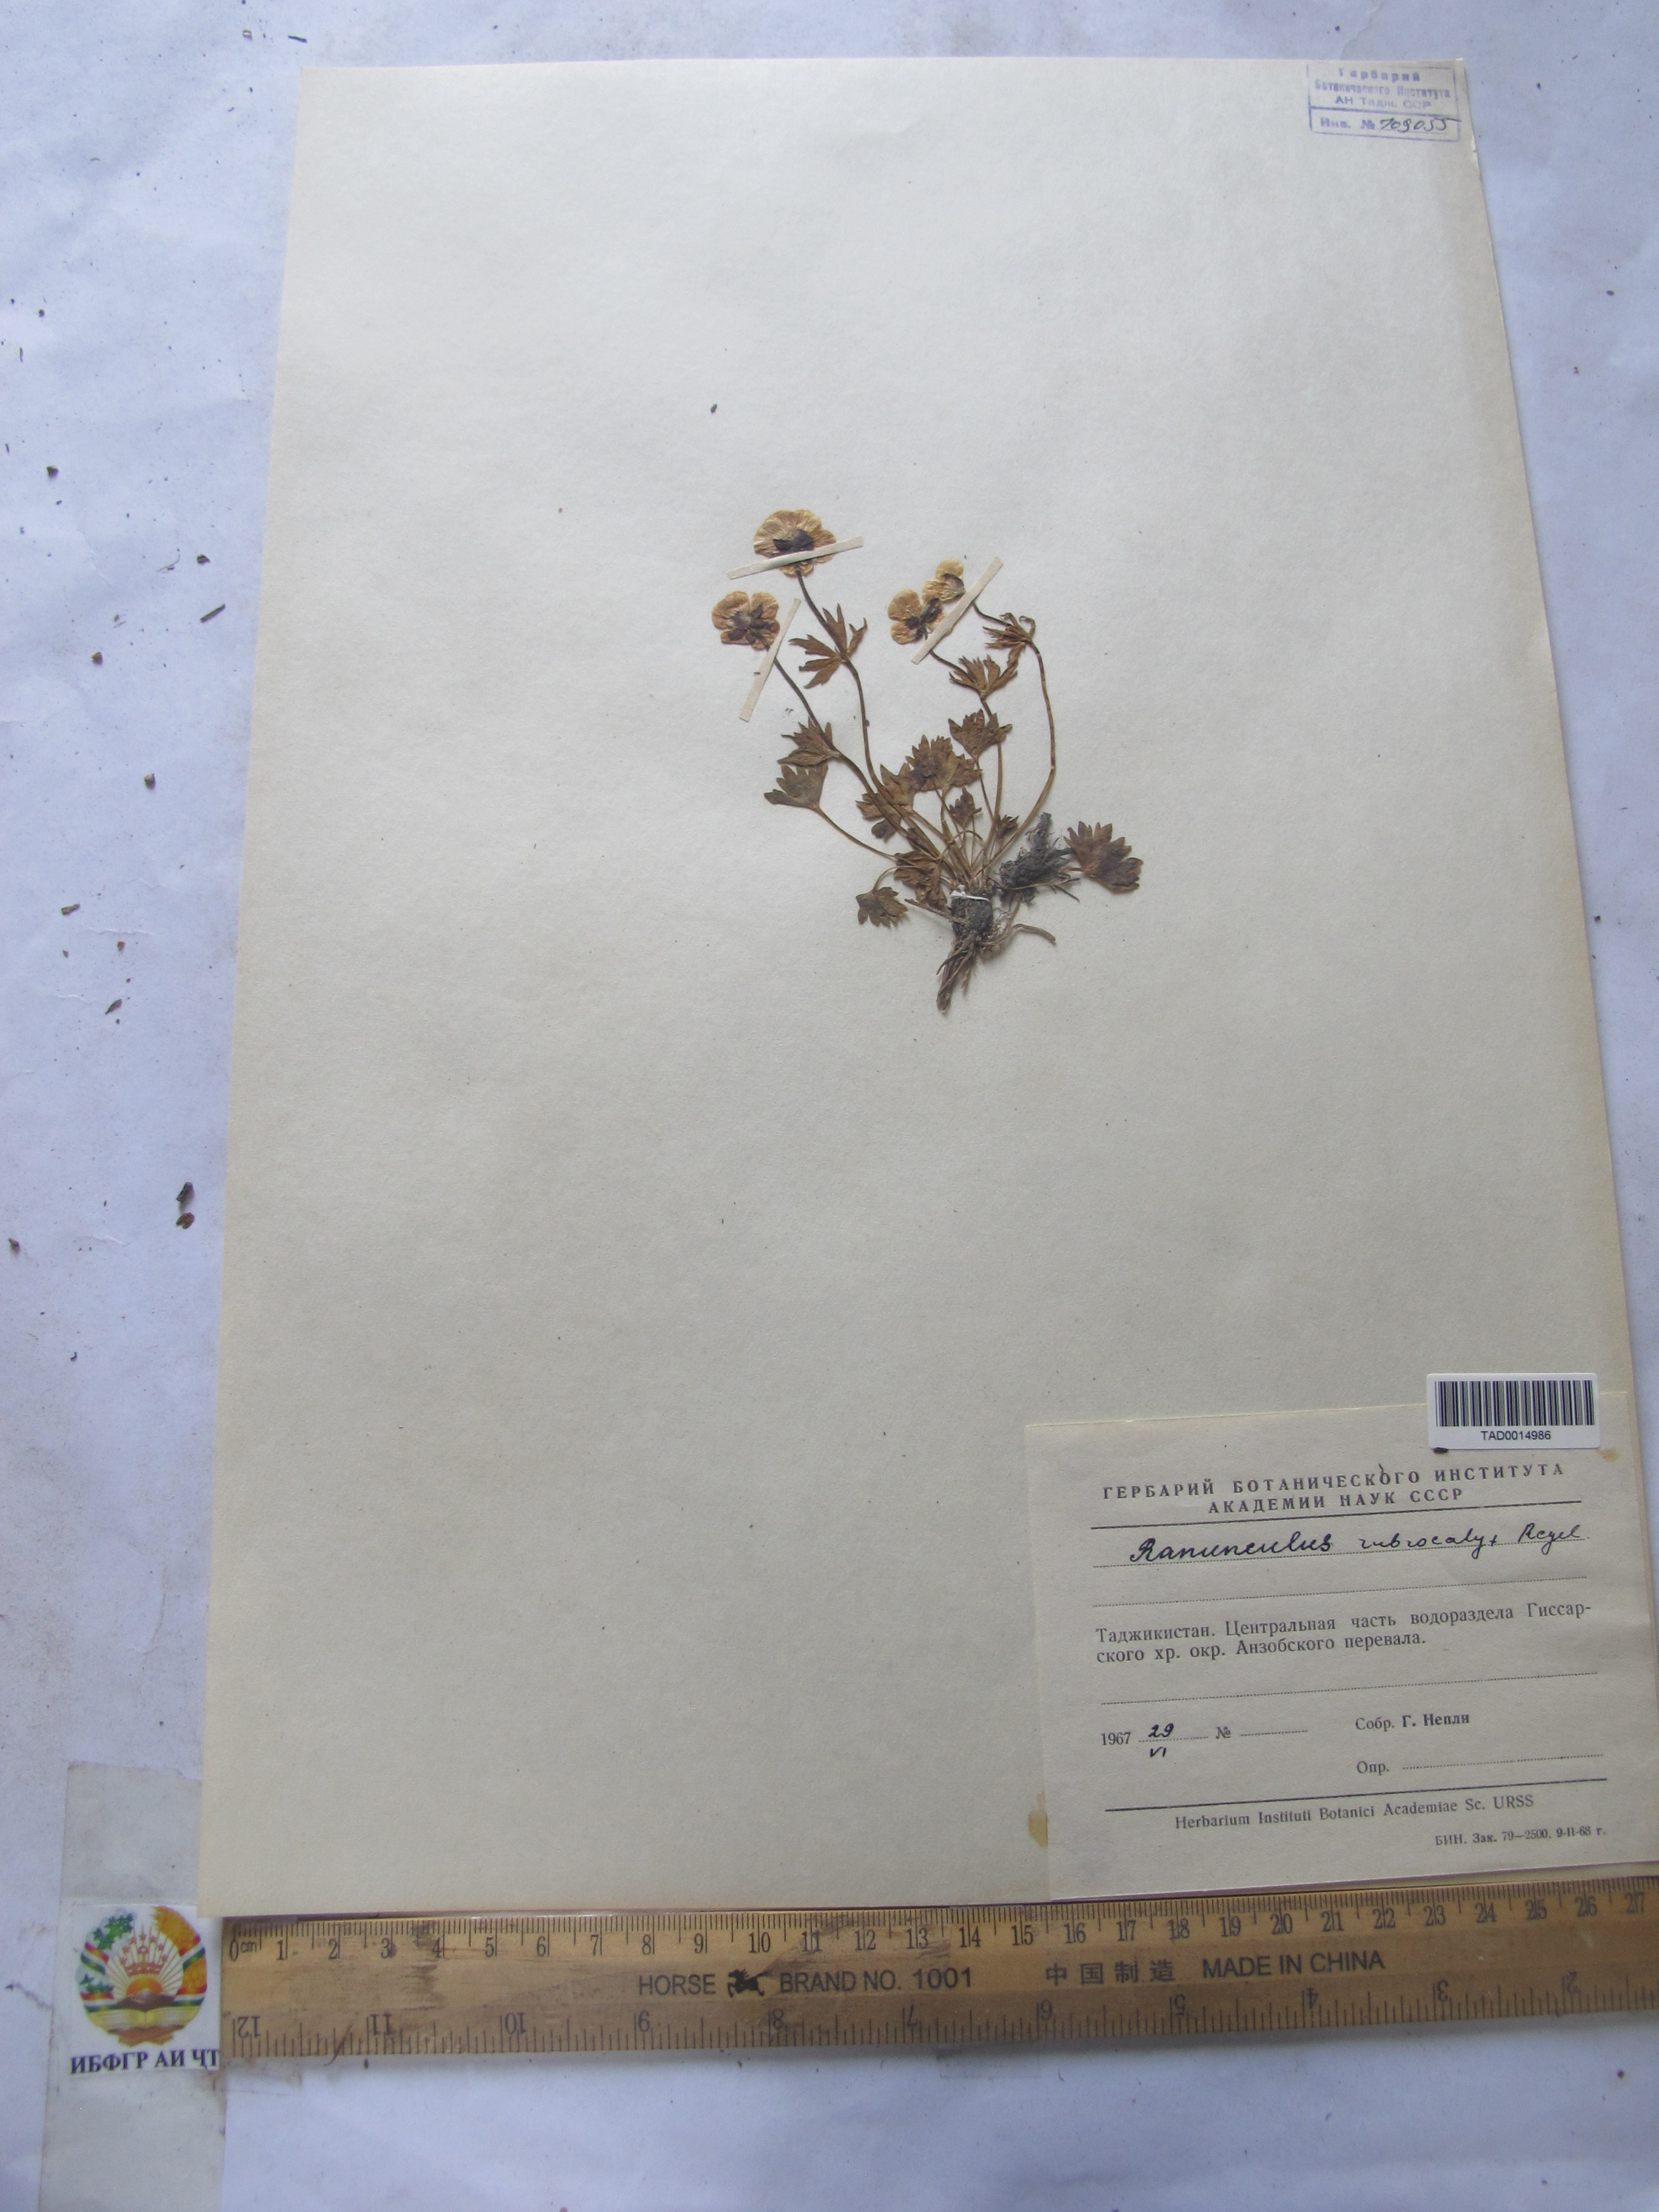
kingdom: Plantae
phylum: Tracheophyta
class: Magnoliopsida
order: Ranunculales
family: Ranunculaceae
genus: Ranunculus
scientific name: Ranunculus rubrocalyx
